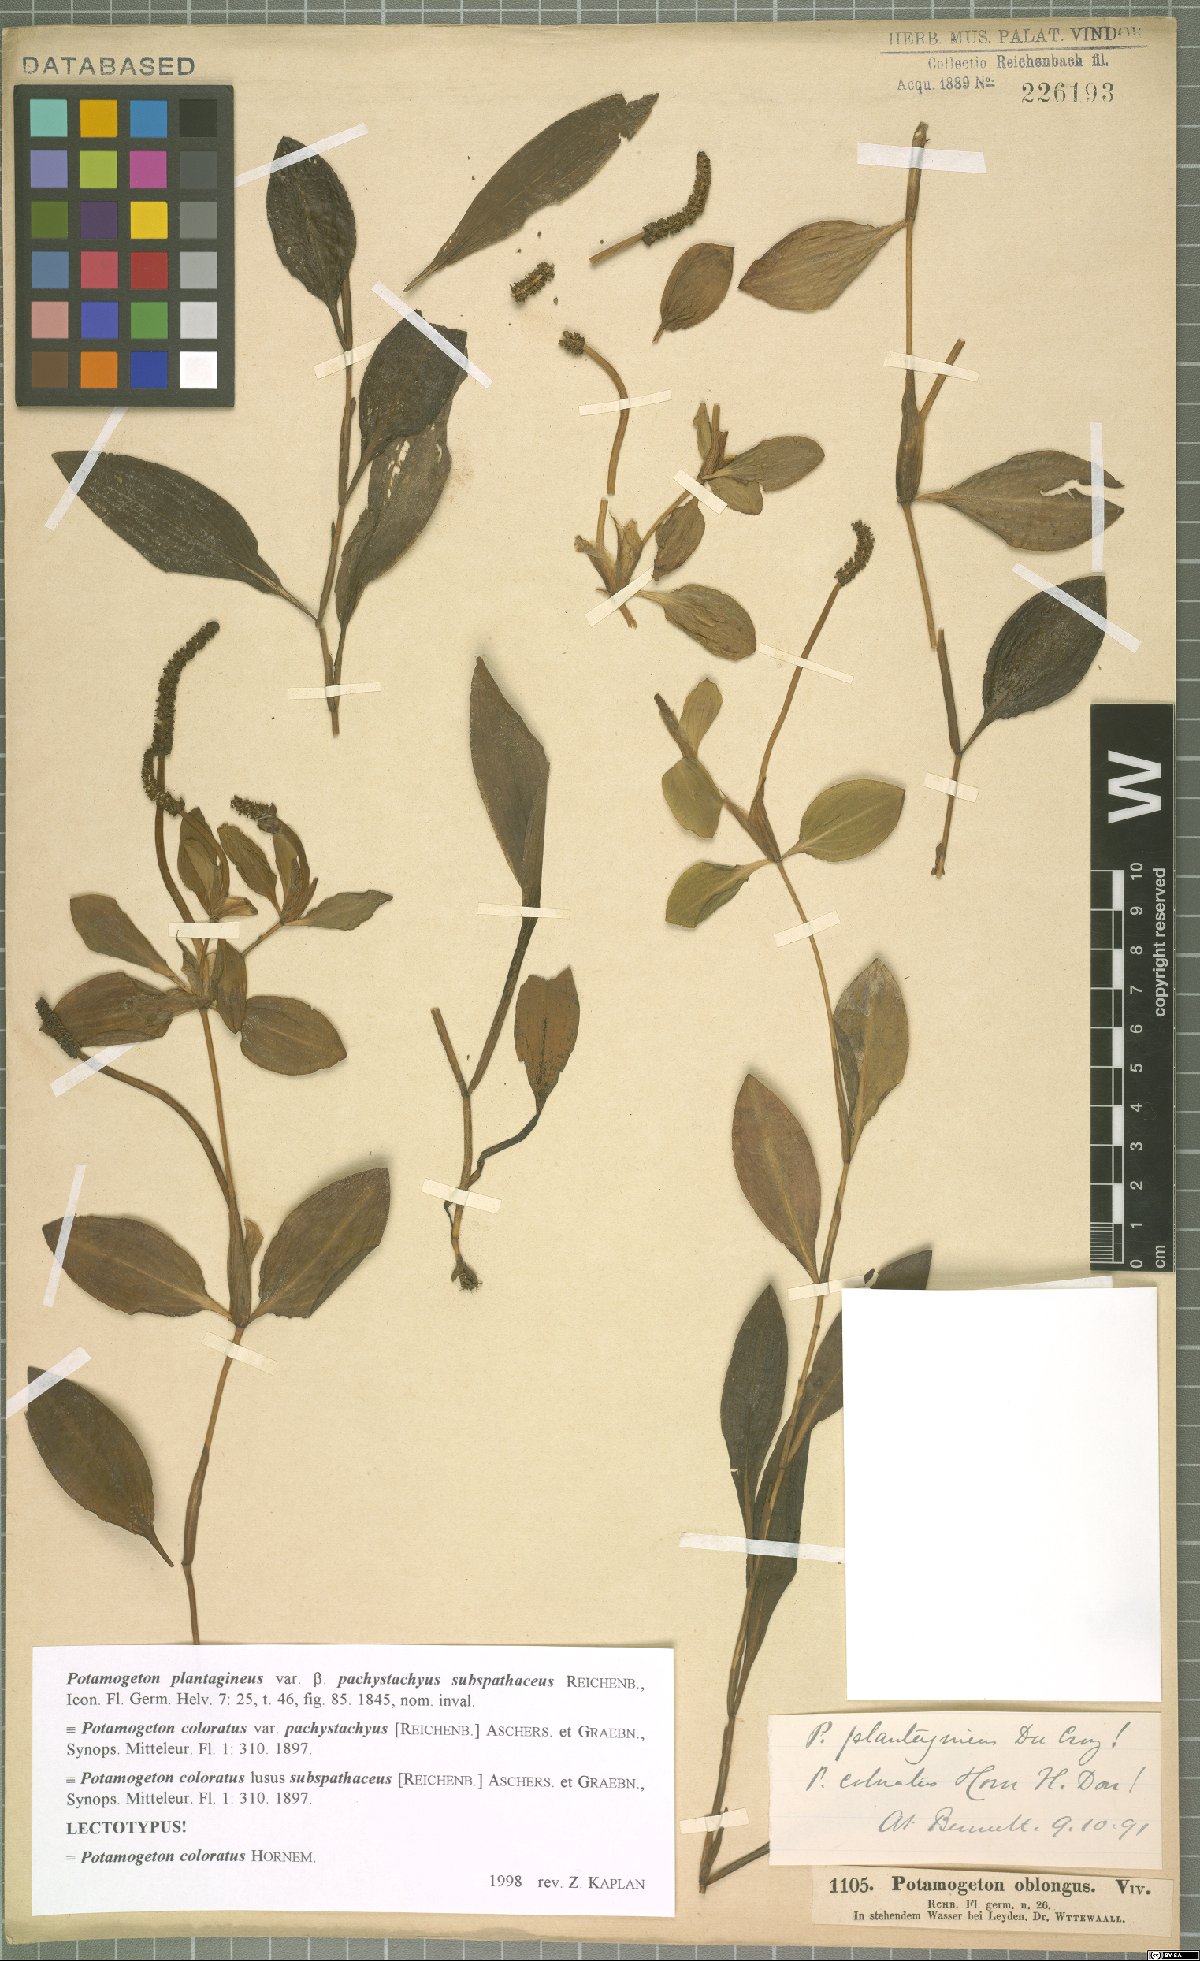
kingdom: Plantae
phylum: Tracheophyta
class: Liliopsida
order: Alismatales
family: Potamogetonaceae
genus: Potamogeton
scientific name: Potamogeton coloratus
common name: Fen pondweed
